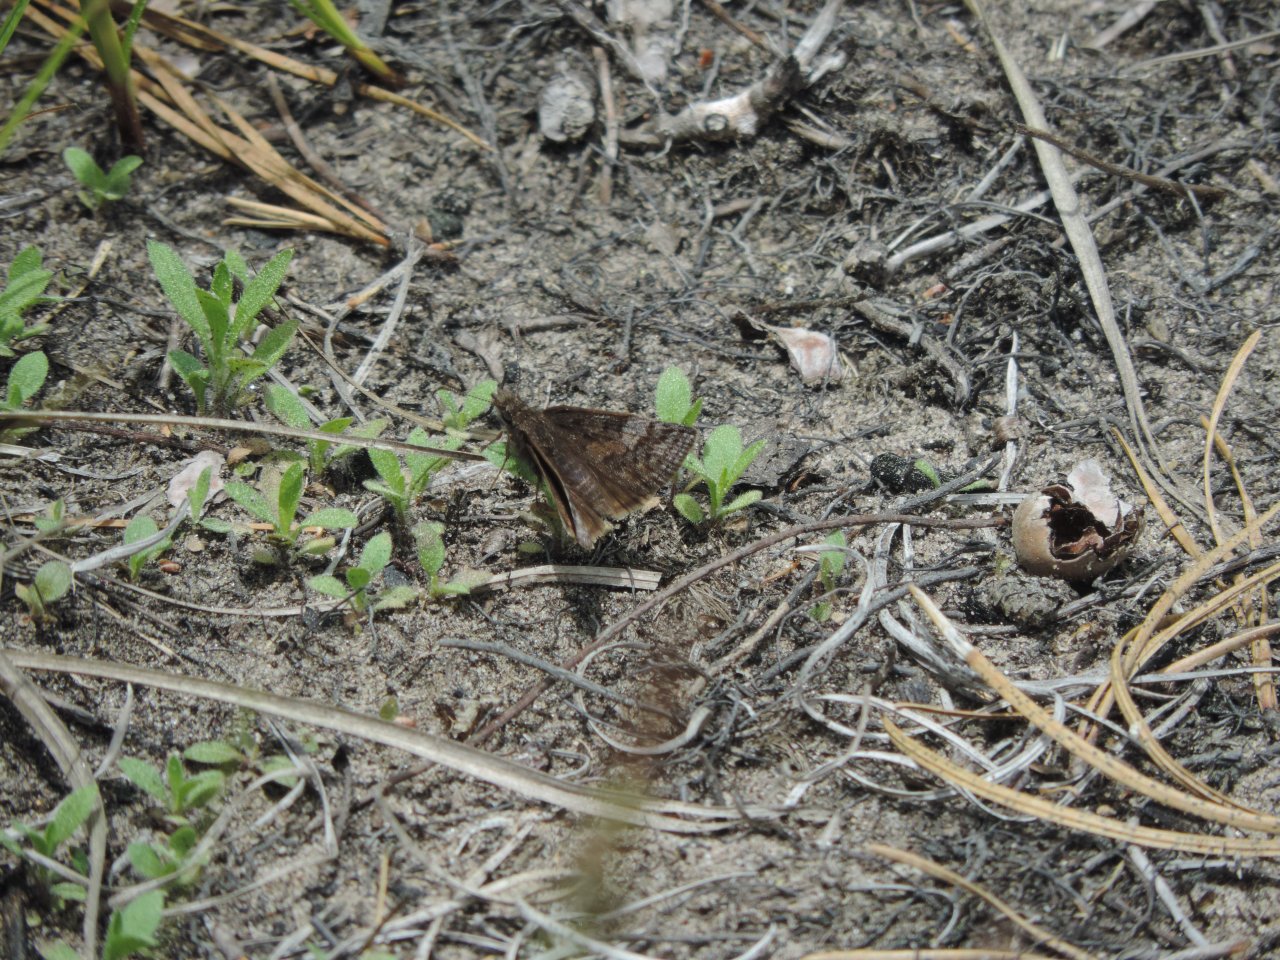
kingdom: Animalia
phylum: Arthropoda
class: Insecta
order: Lepidoptera
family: Hesperiidae
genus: Erynnis
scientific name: Erynnis icelus
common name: Dreamy Duskywing
